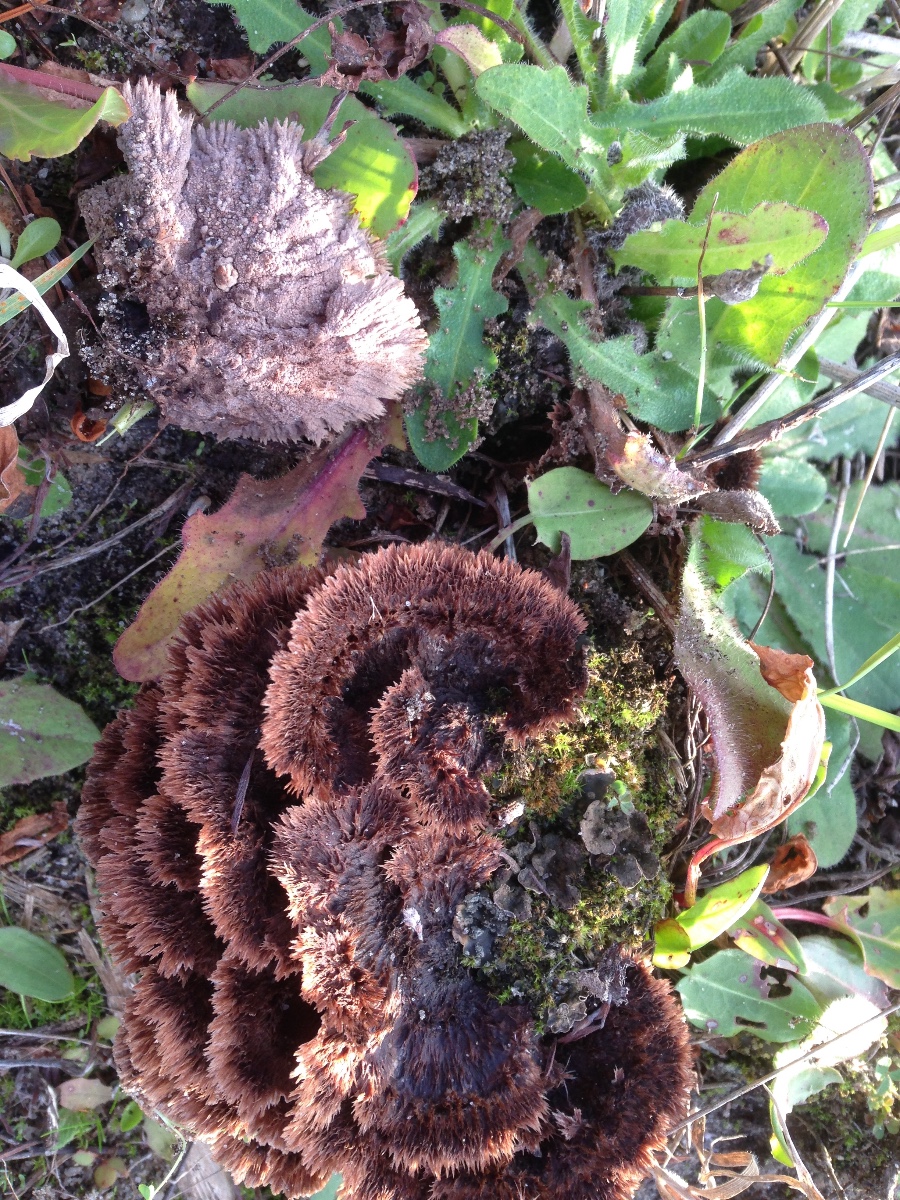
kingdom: Fungi
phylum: Basidiomycota
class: Agaricomycetes
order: Thelephorales
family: Thelephoraceae
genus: Thelephora
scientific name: Thelephora terrestris
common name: fliget frynsesvamp
